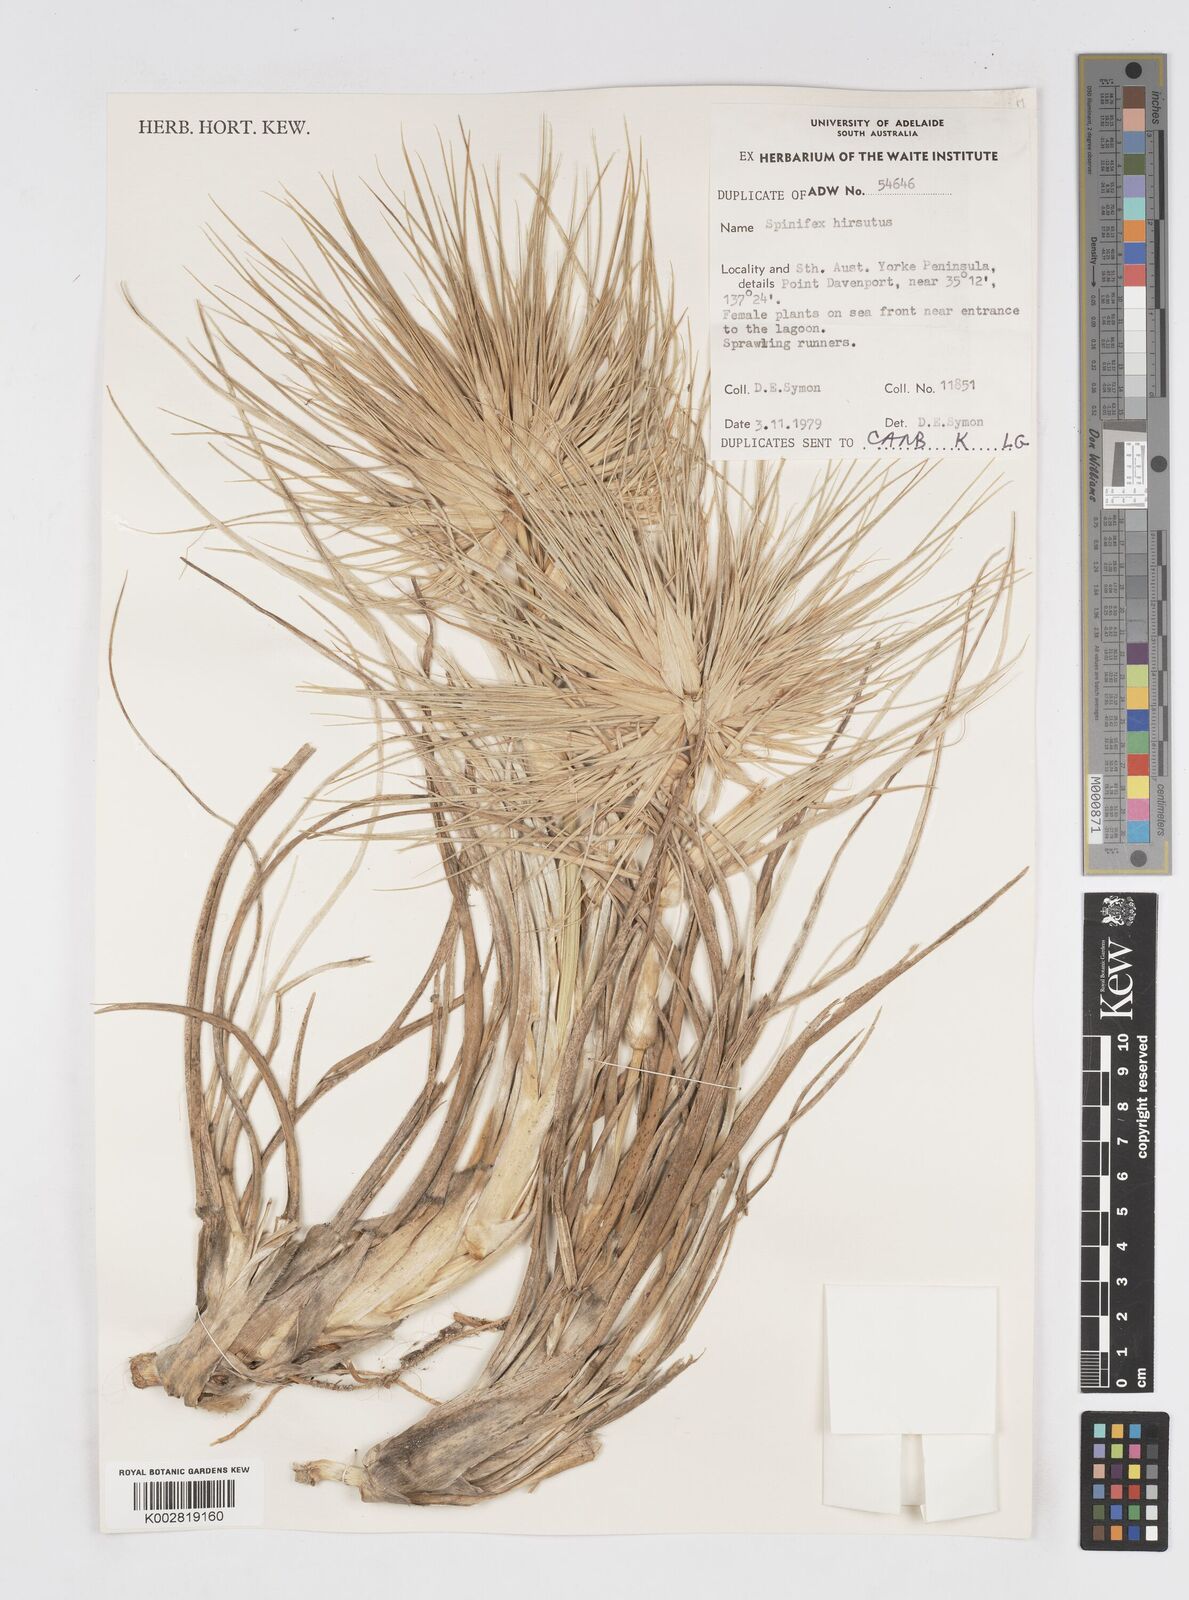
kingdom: Plantae
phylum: Tracheophyta
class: Liliopsida
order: Poales
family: Poaceae
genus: Spinifex
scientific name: Spinifex hirsutus
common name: Hairy spinifex
